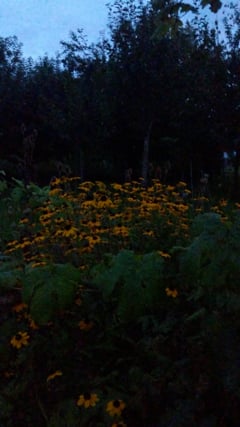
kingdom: Animalia
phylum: Arthropoda
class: Insecta
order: Orthoptera
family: Gryllidae
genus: Gryllus
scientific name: Gryllus
